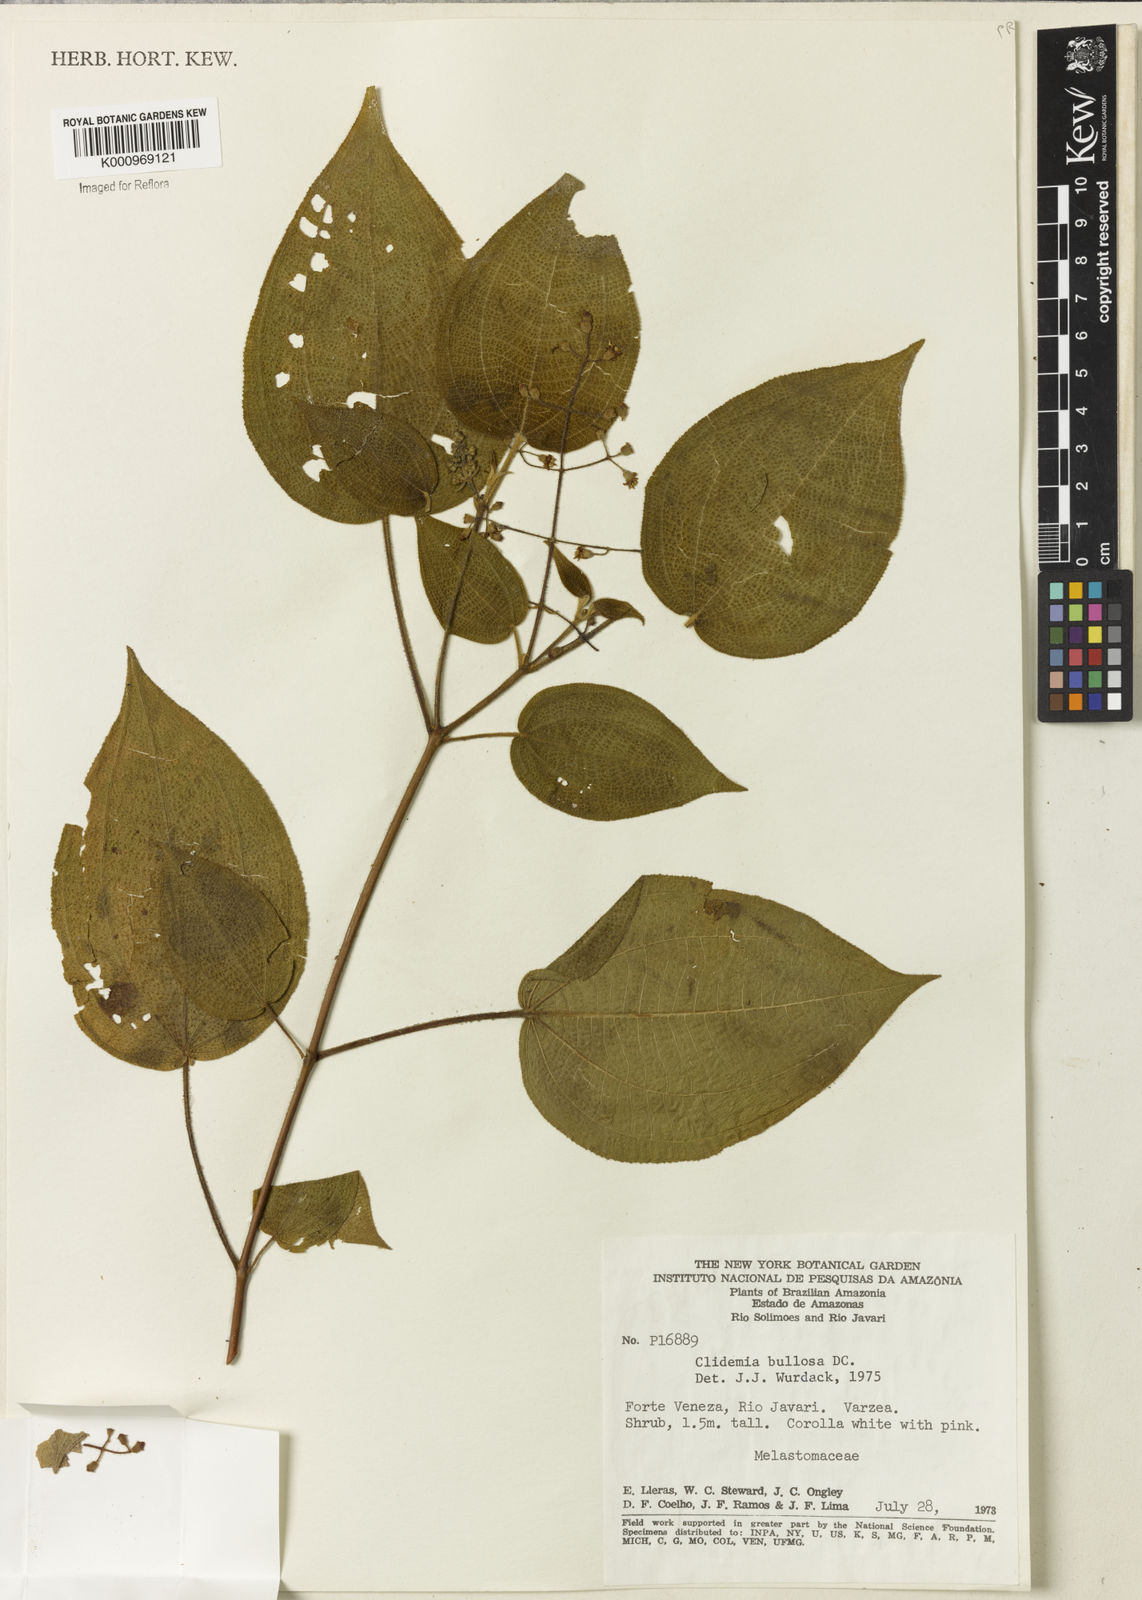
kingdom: Plantae
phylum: Tracheophyta
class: Magnoliopsida
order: Myrtales
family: Melastomataceae
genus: Miconia
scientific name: Miconia biserrata
